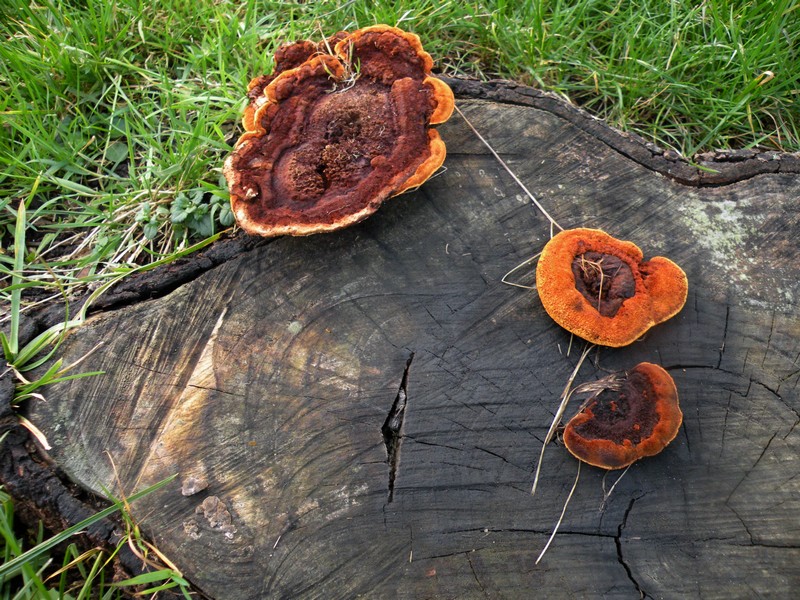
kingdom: Fungi
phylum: Basidiomycota
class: Agaricomycetes
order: Gloeophyllales
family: Gloeophyllaceae
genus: Gloeophyllum
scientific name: Gloeophyllum odoratum
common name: duftende korkhat
